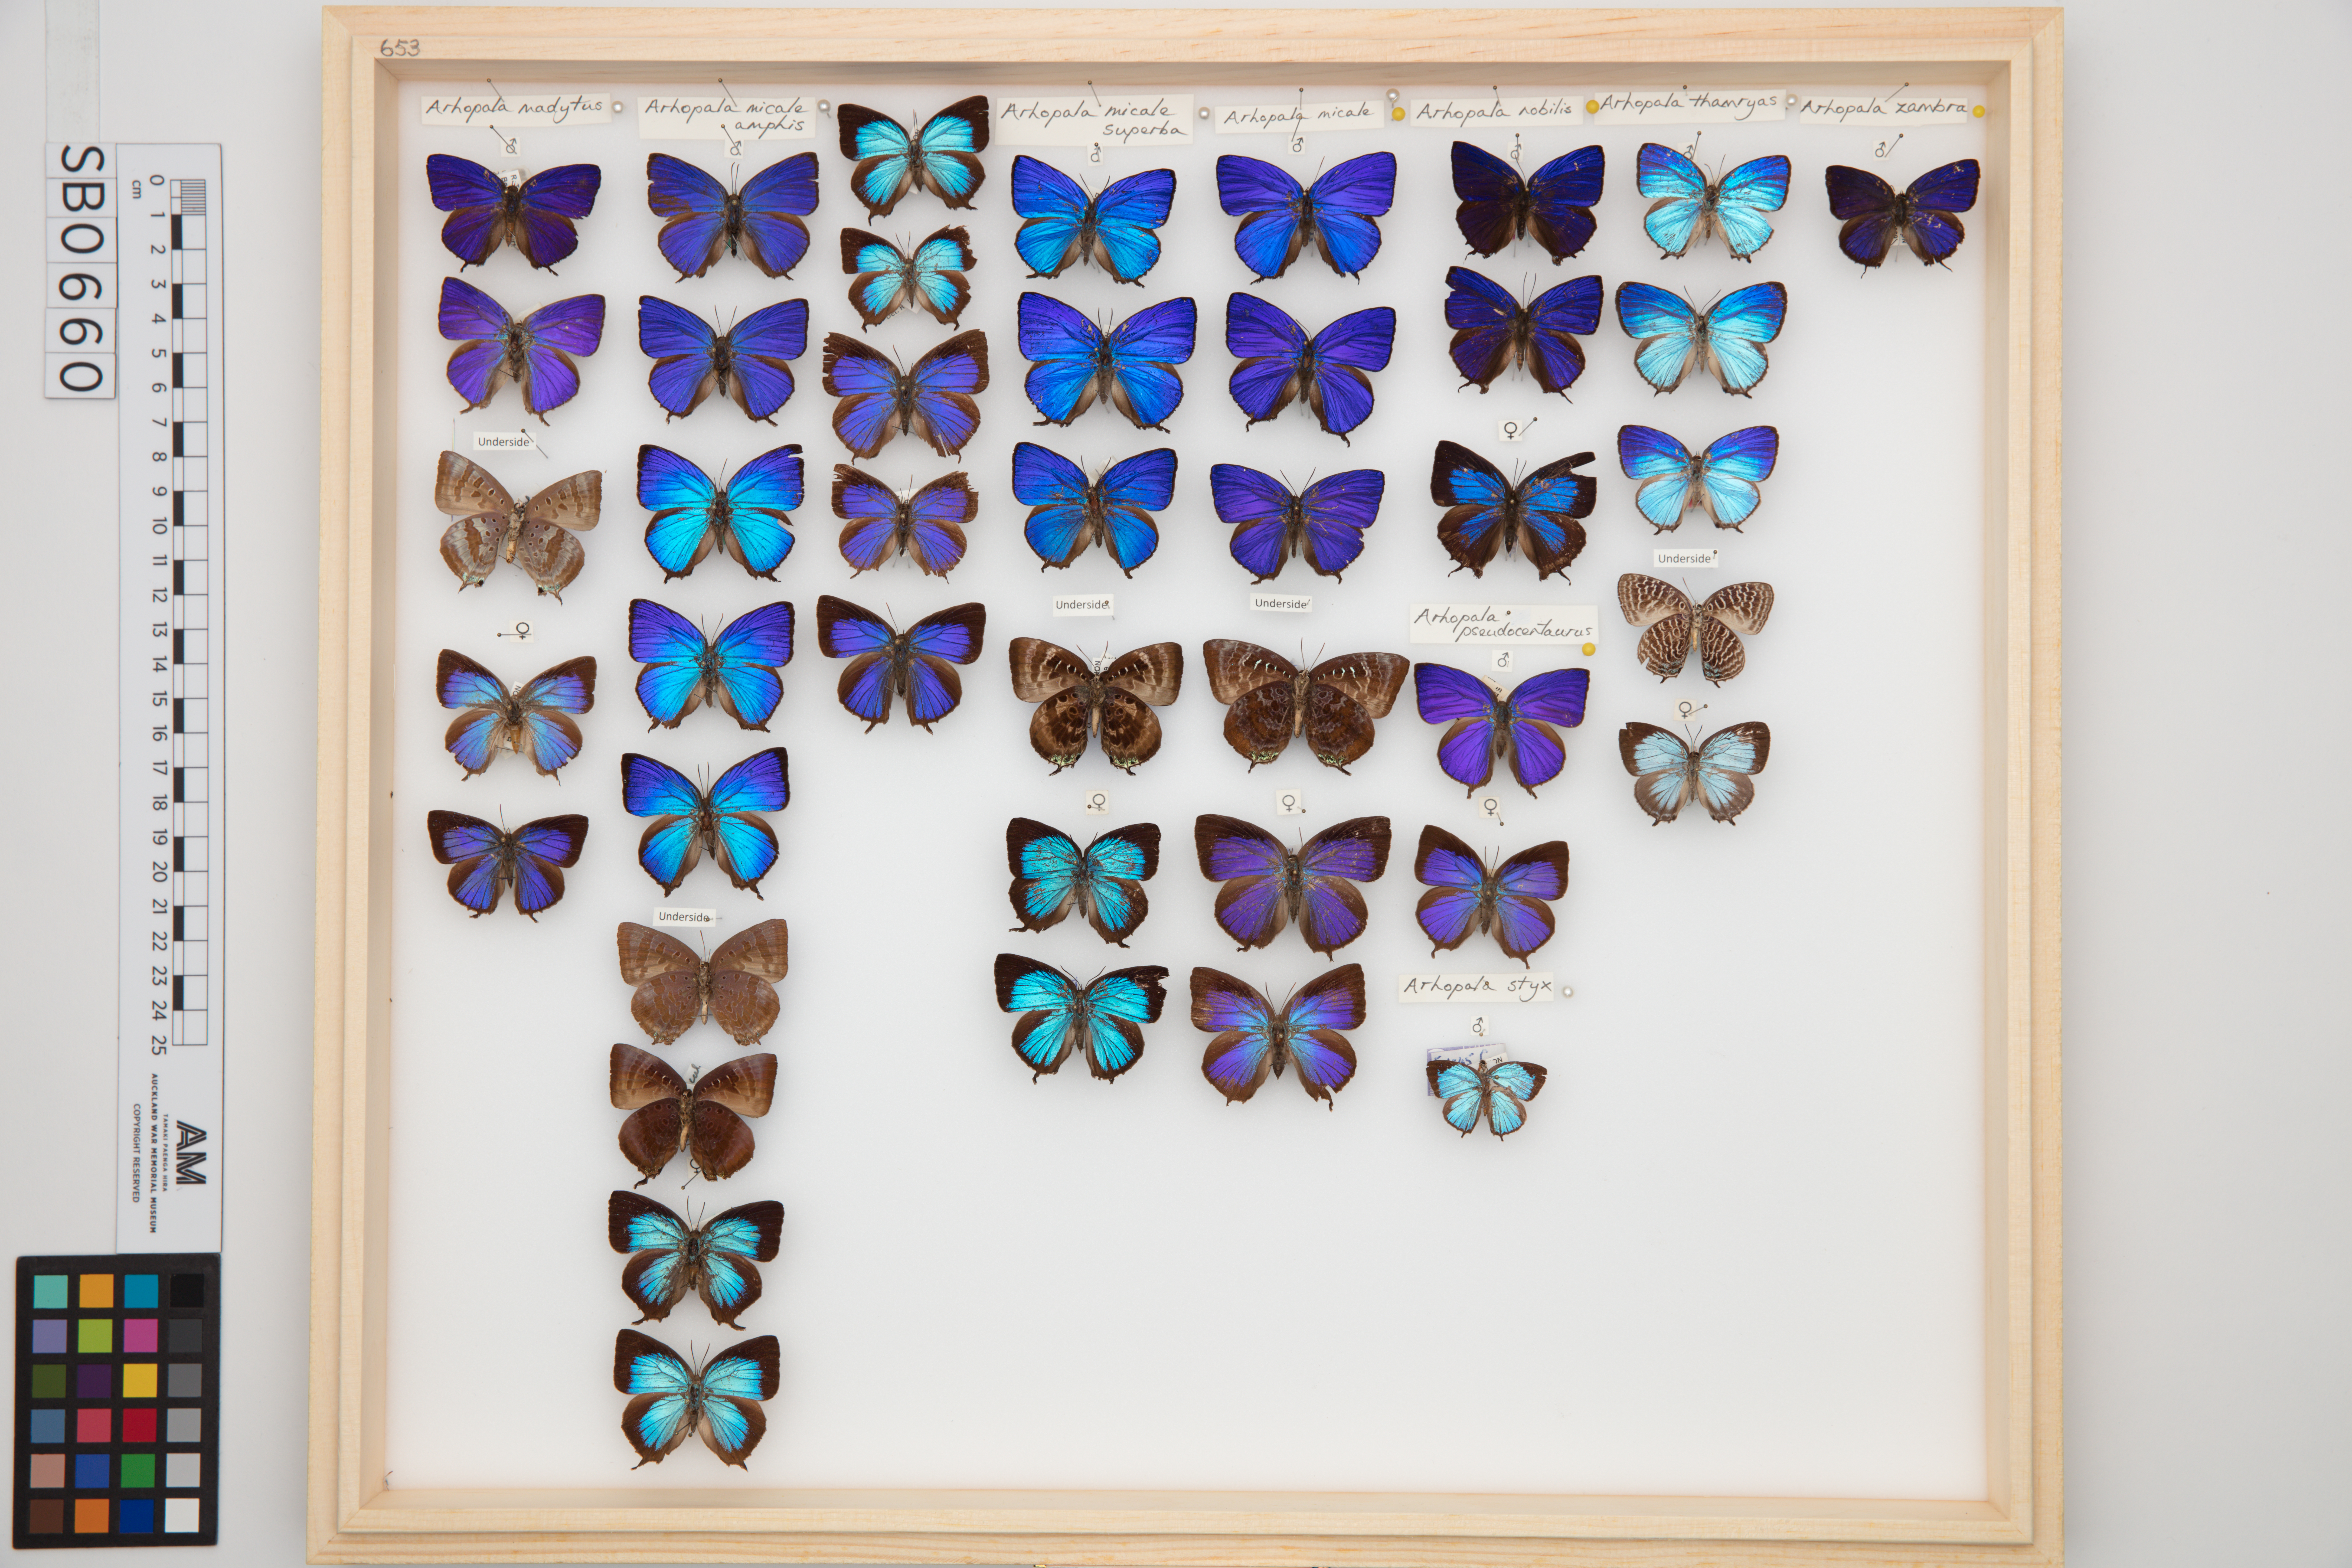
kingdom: Animalia
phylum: Arthropoda
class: Insecta
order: Lepidoptera
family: Lycaenidae
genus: Arhopala
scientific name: Arhopala thamyras
